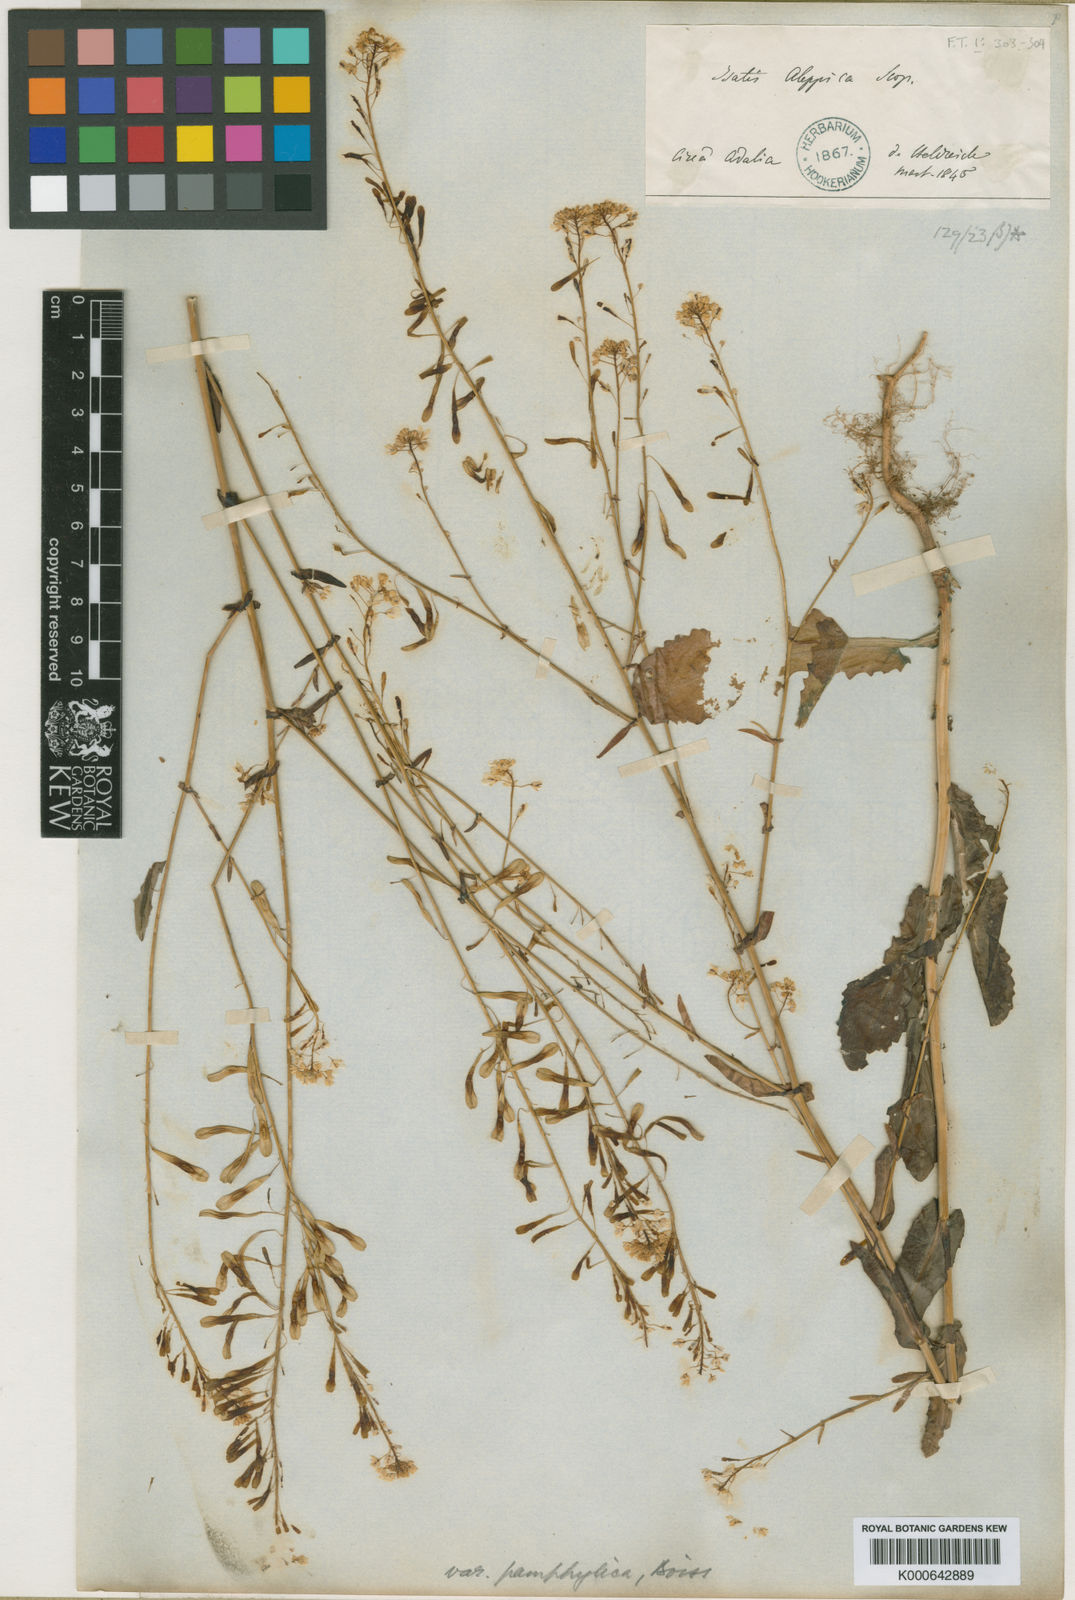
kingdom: Plantae
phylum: Tracheophyta
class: Magnoliopsida
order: Brassicales
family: Brassicaceae
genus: Isatis
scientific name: Isatis lusitanica
